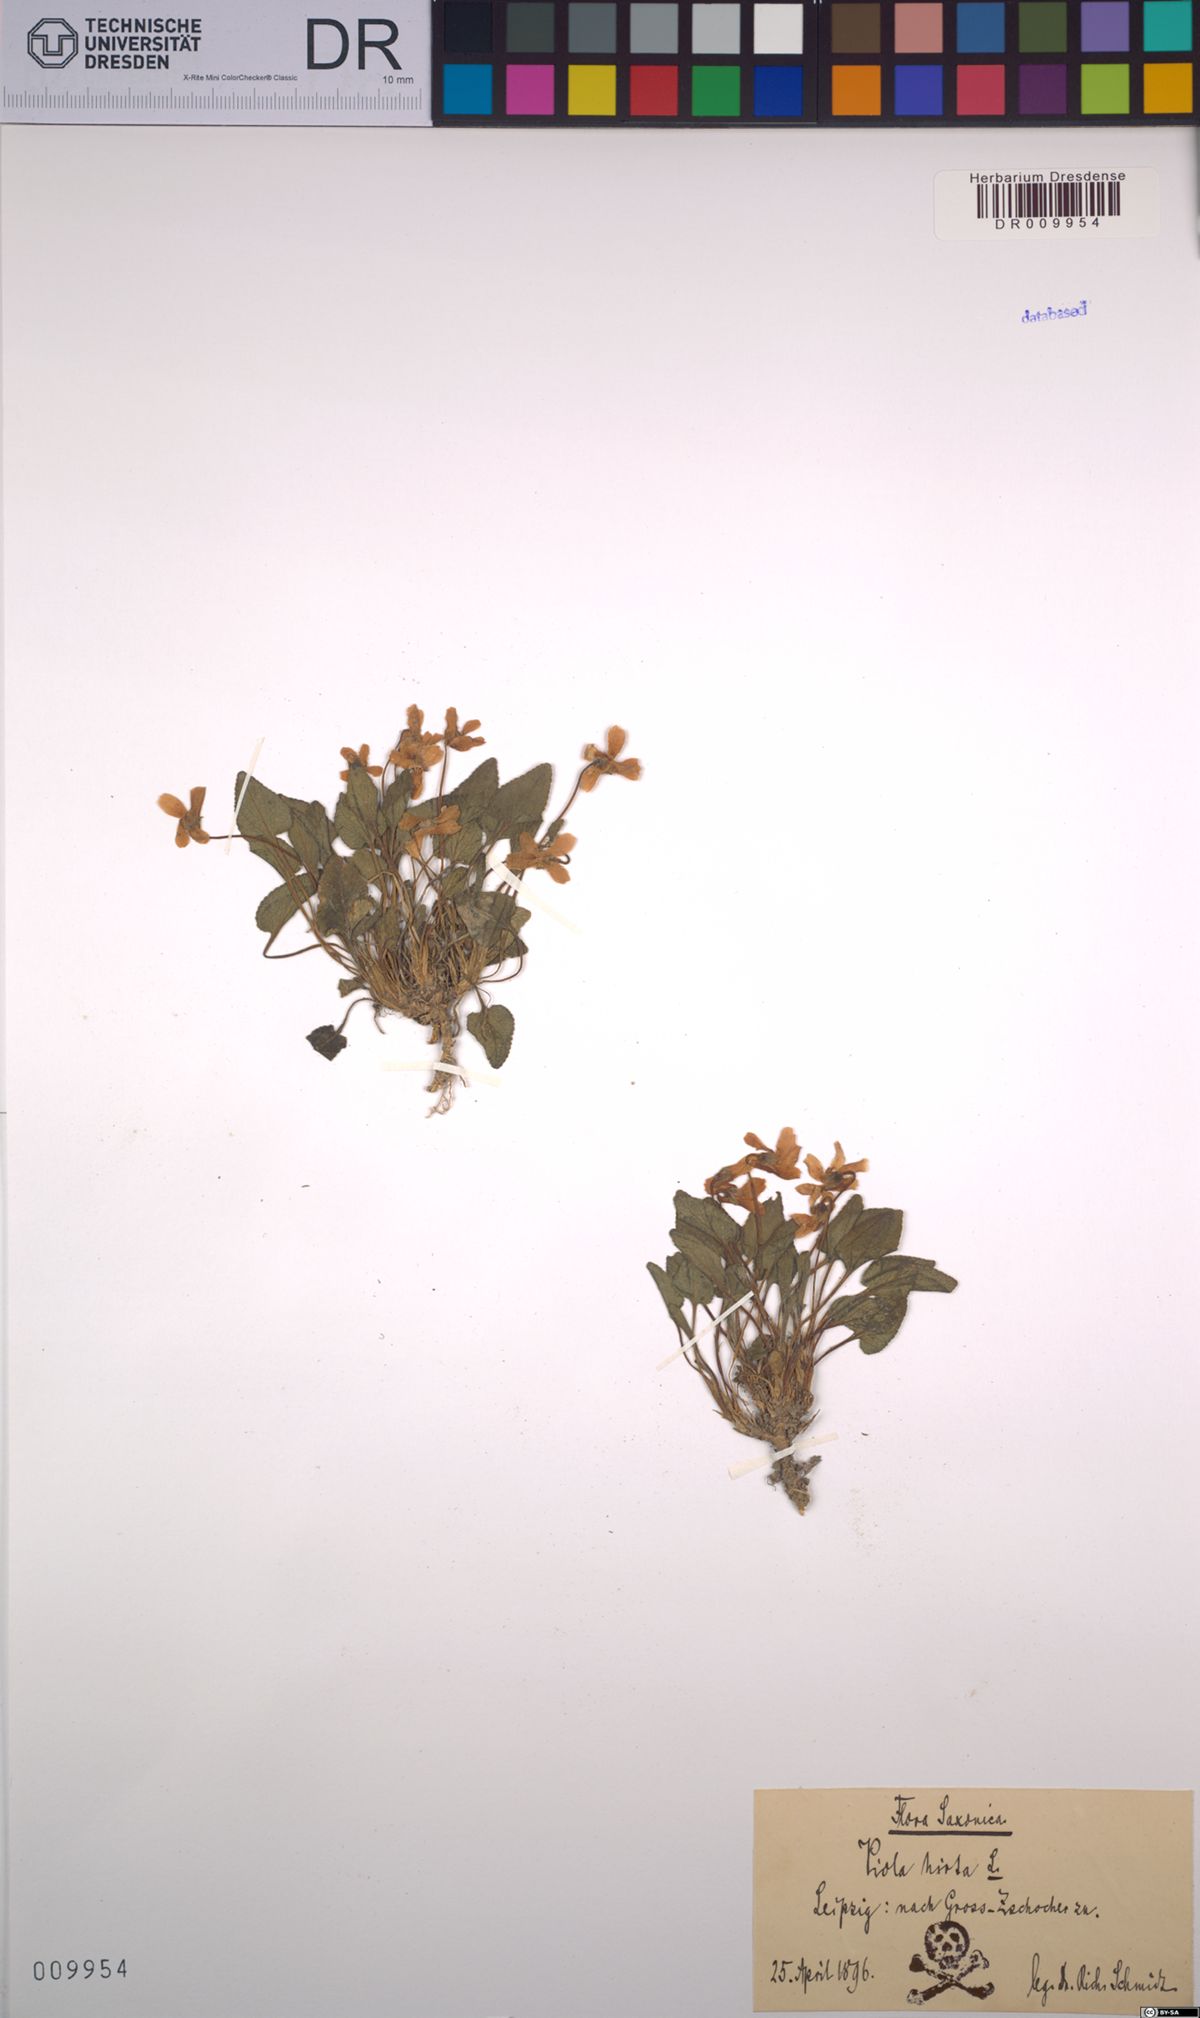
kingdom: Plantae
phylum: Tracheophyta
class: Magnoliopsida
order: Malpighiales
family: Violaceae
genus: Viola
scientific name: Viola hirta
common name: Hairy violet
